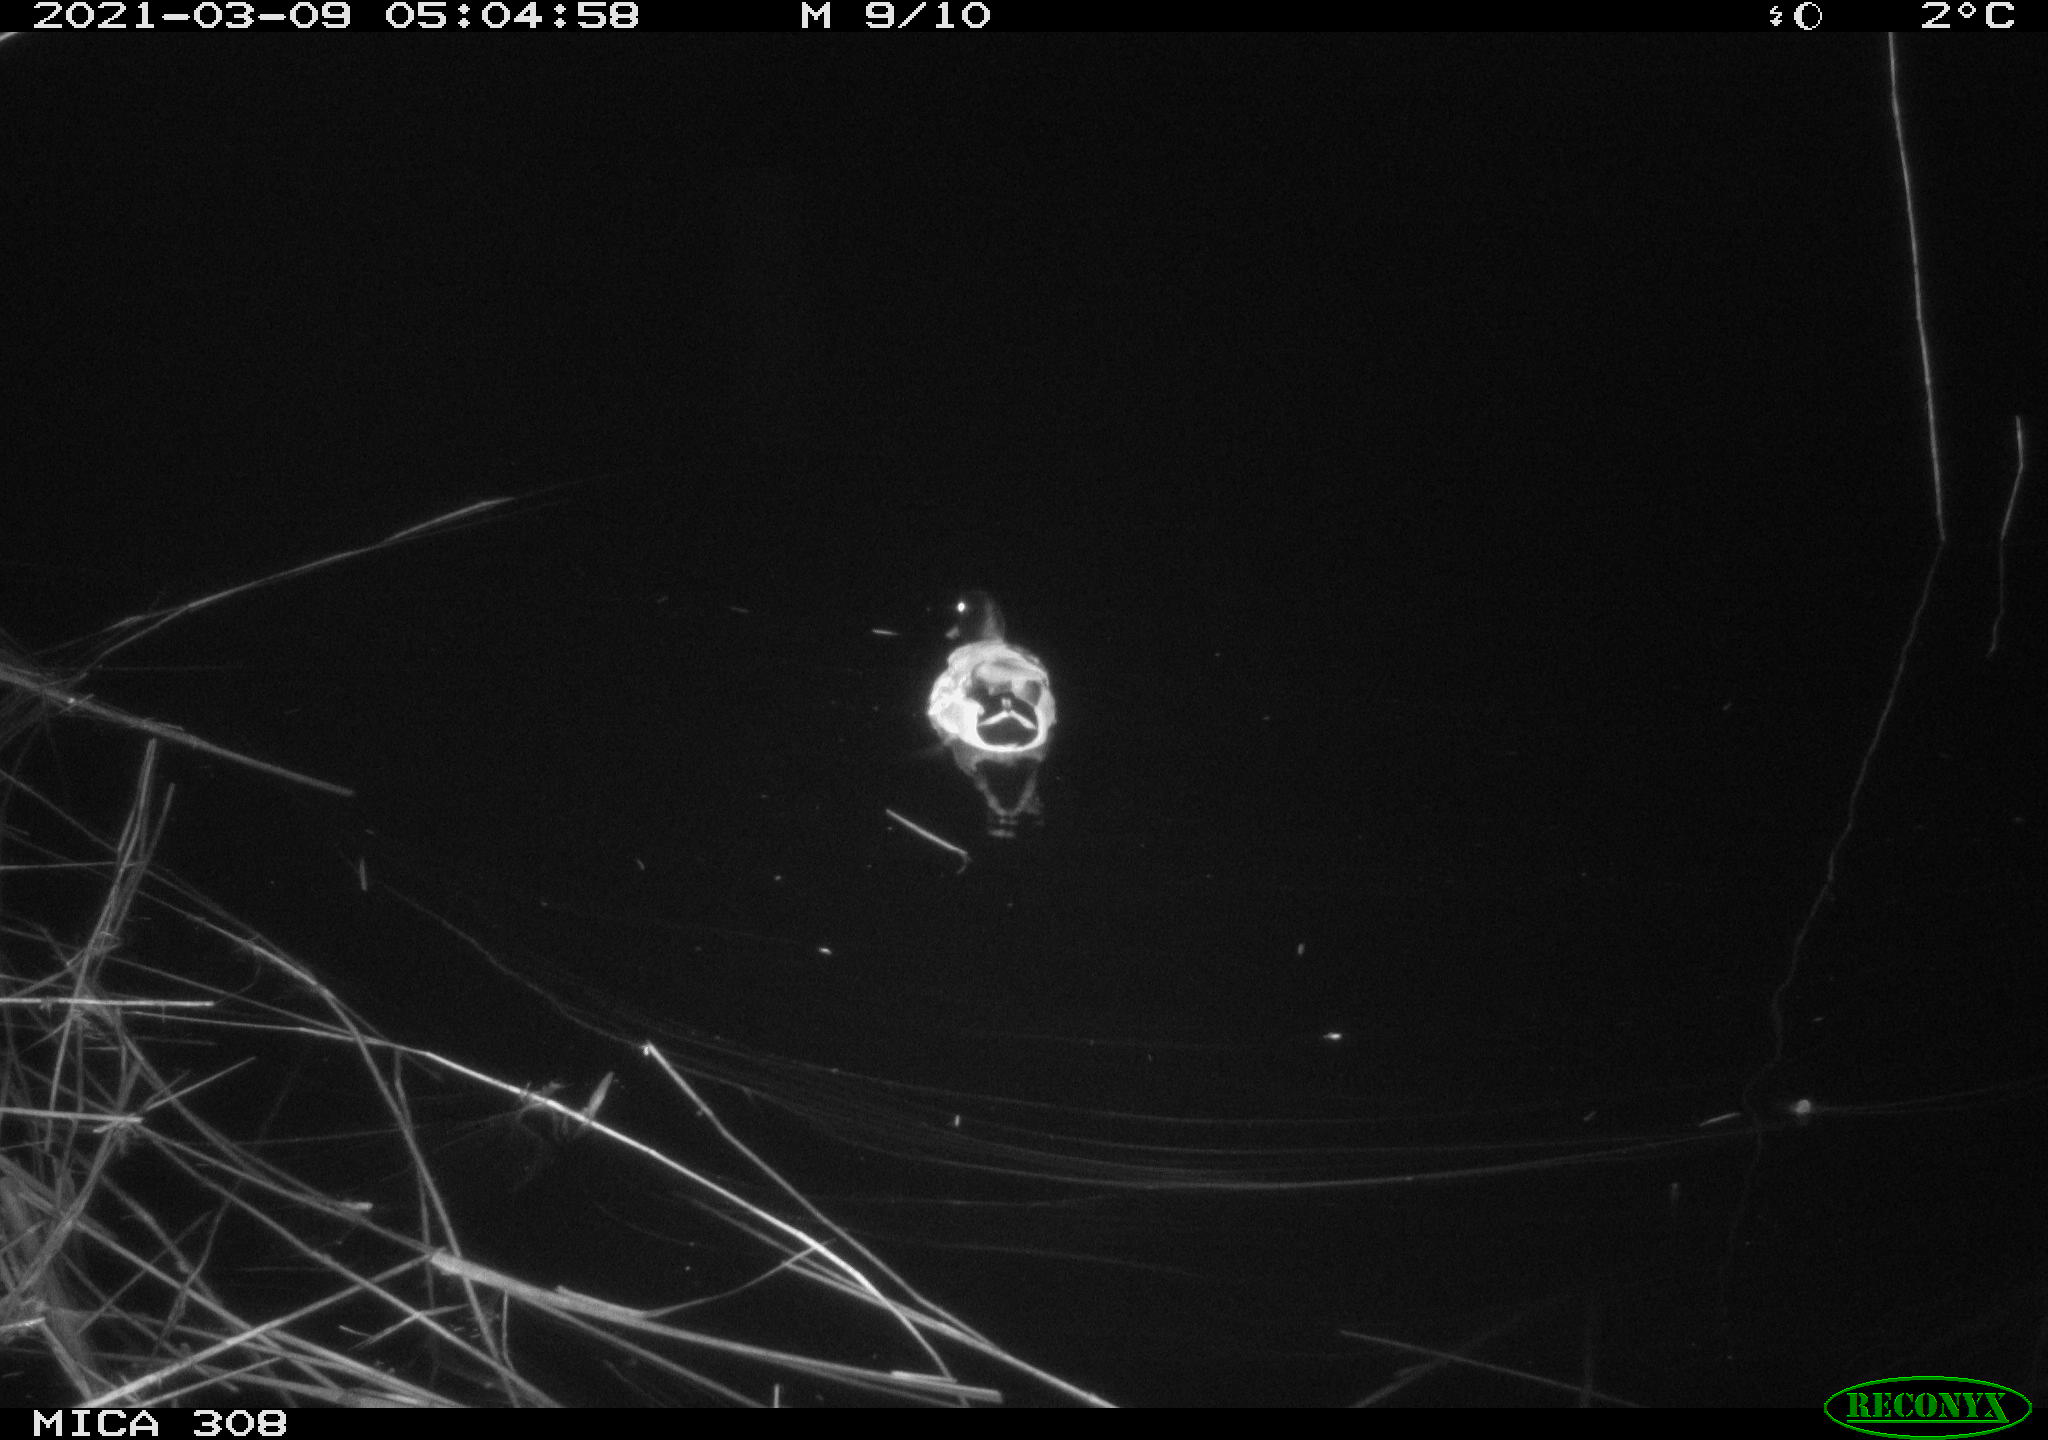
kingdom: Animalia
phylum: Chordata
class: Aves
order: Anseriformes
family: Anatidae
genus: Anas
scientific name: Anas platyrhynchos
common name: Mallard
